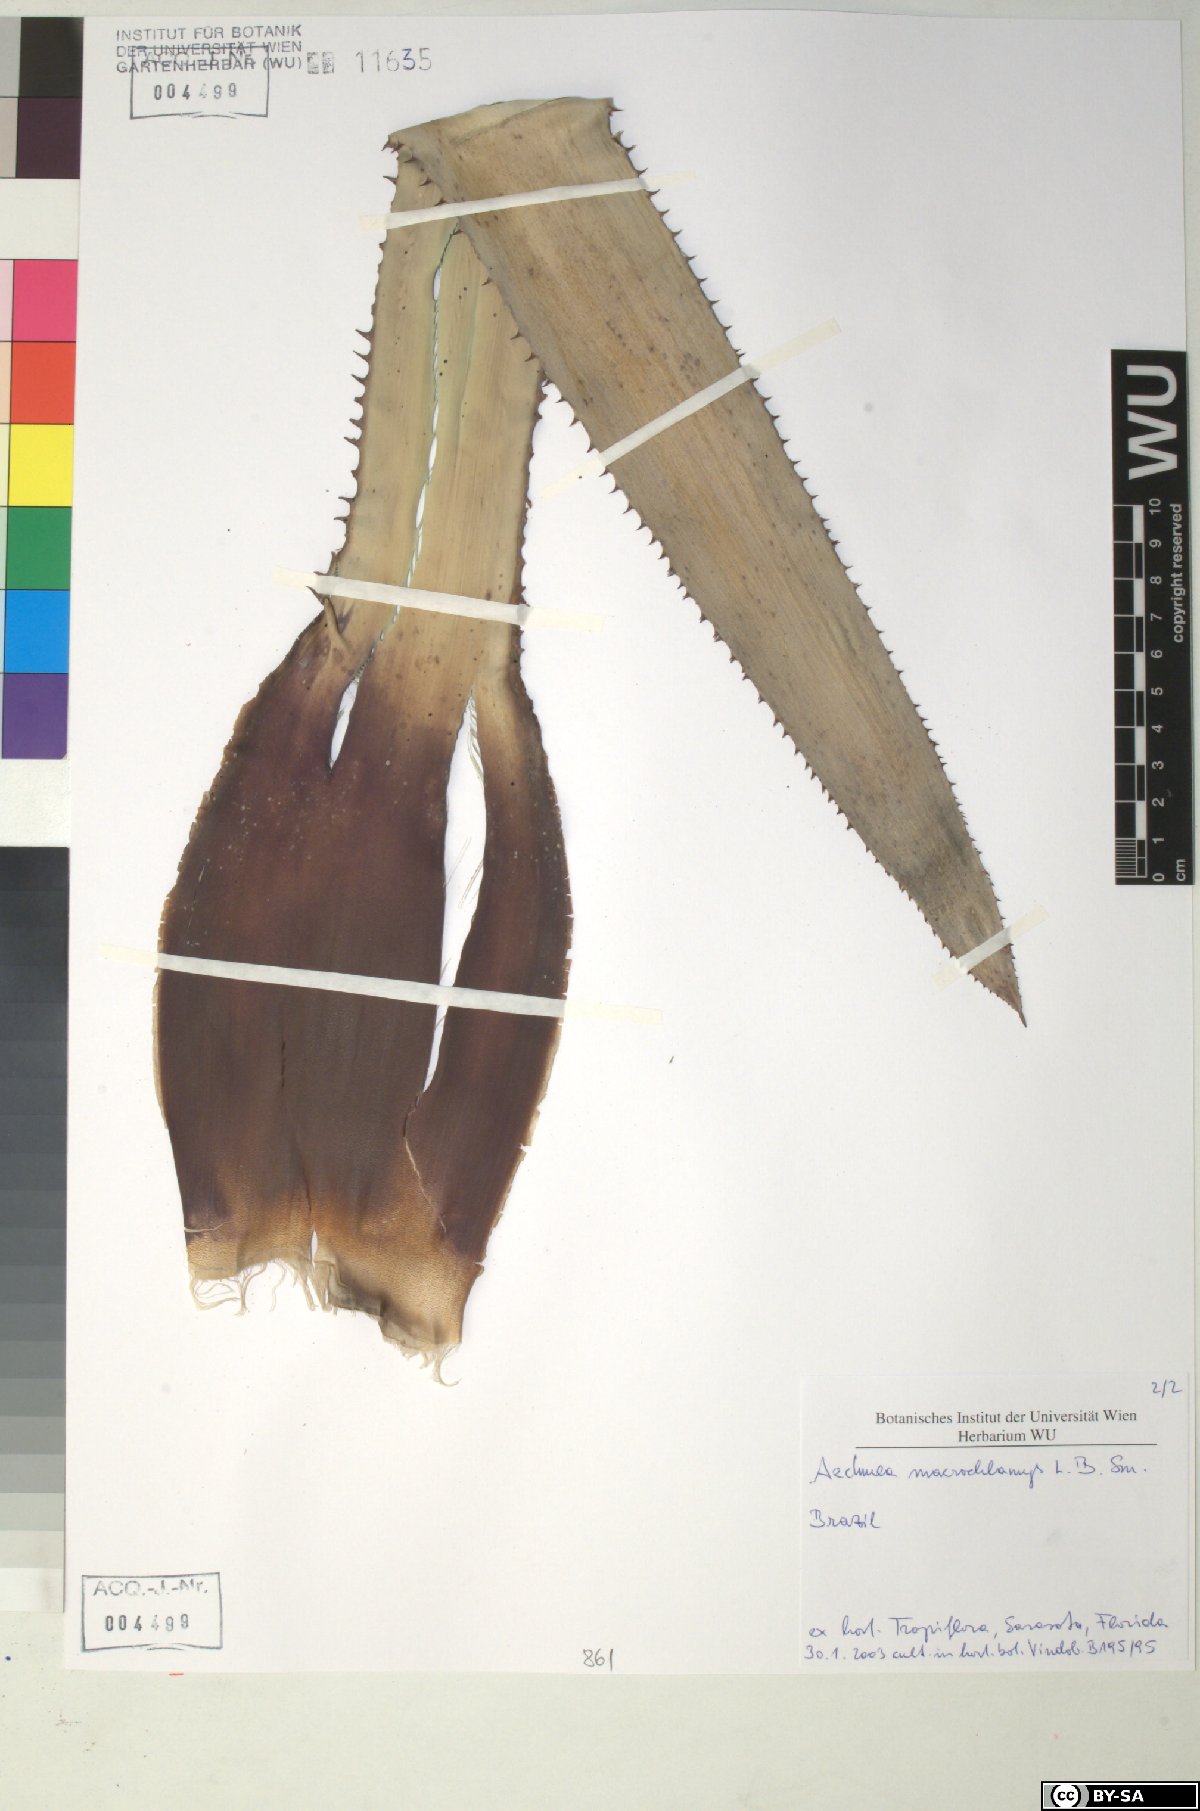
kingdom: Plantae
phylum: Tracheophyta
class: Liliopsida
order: Poales
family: Bromeliaceae
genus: Aechmea
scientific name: Aechmea macrochlamys
